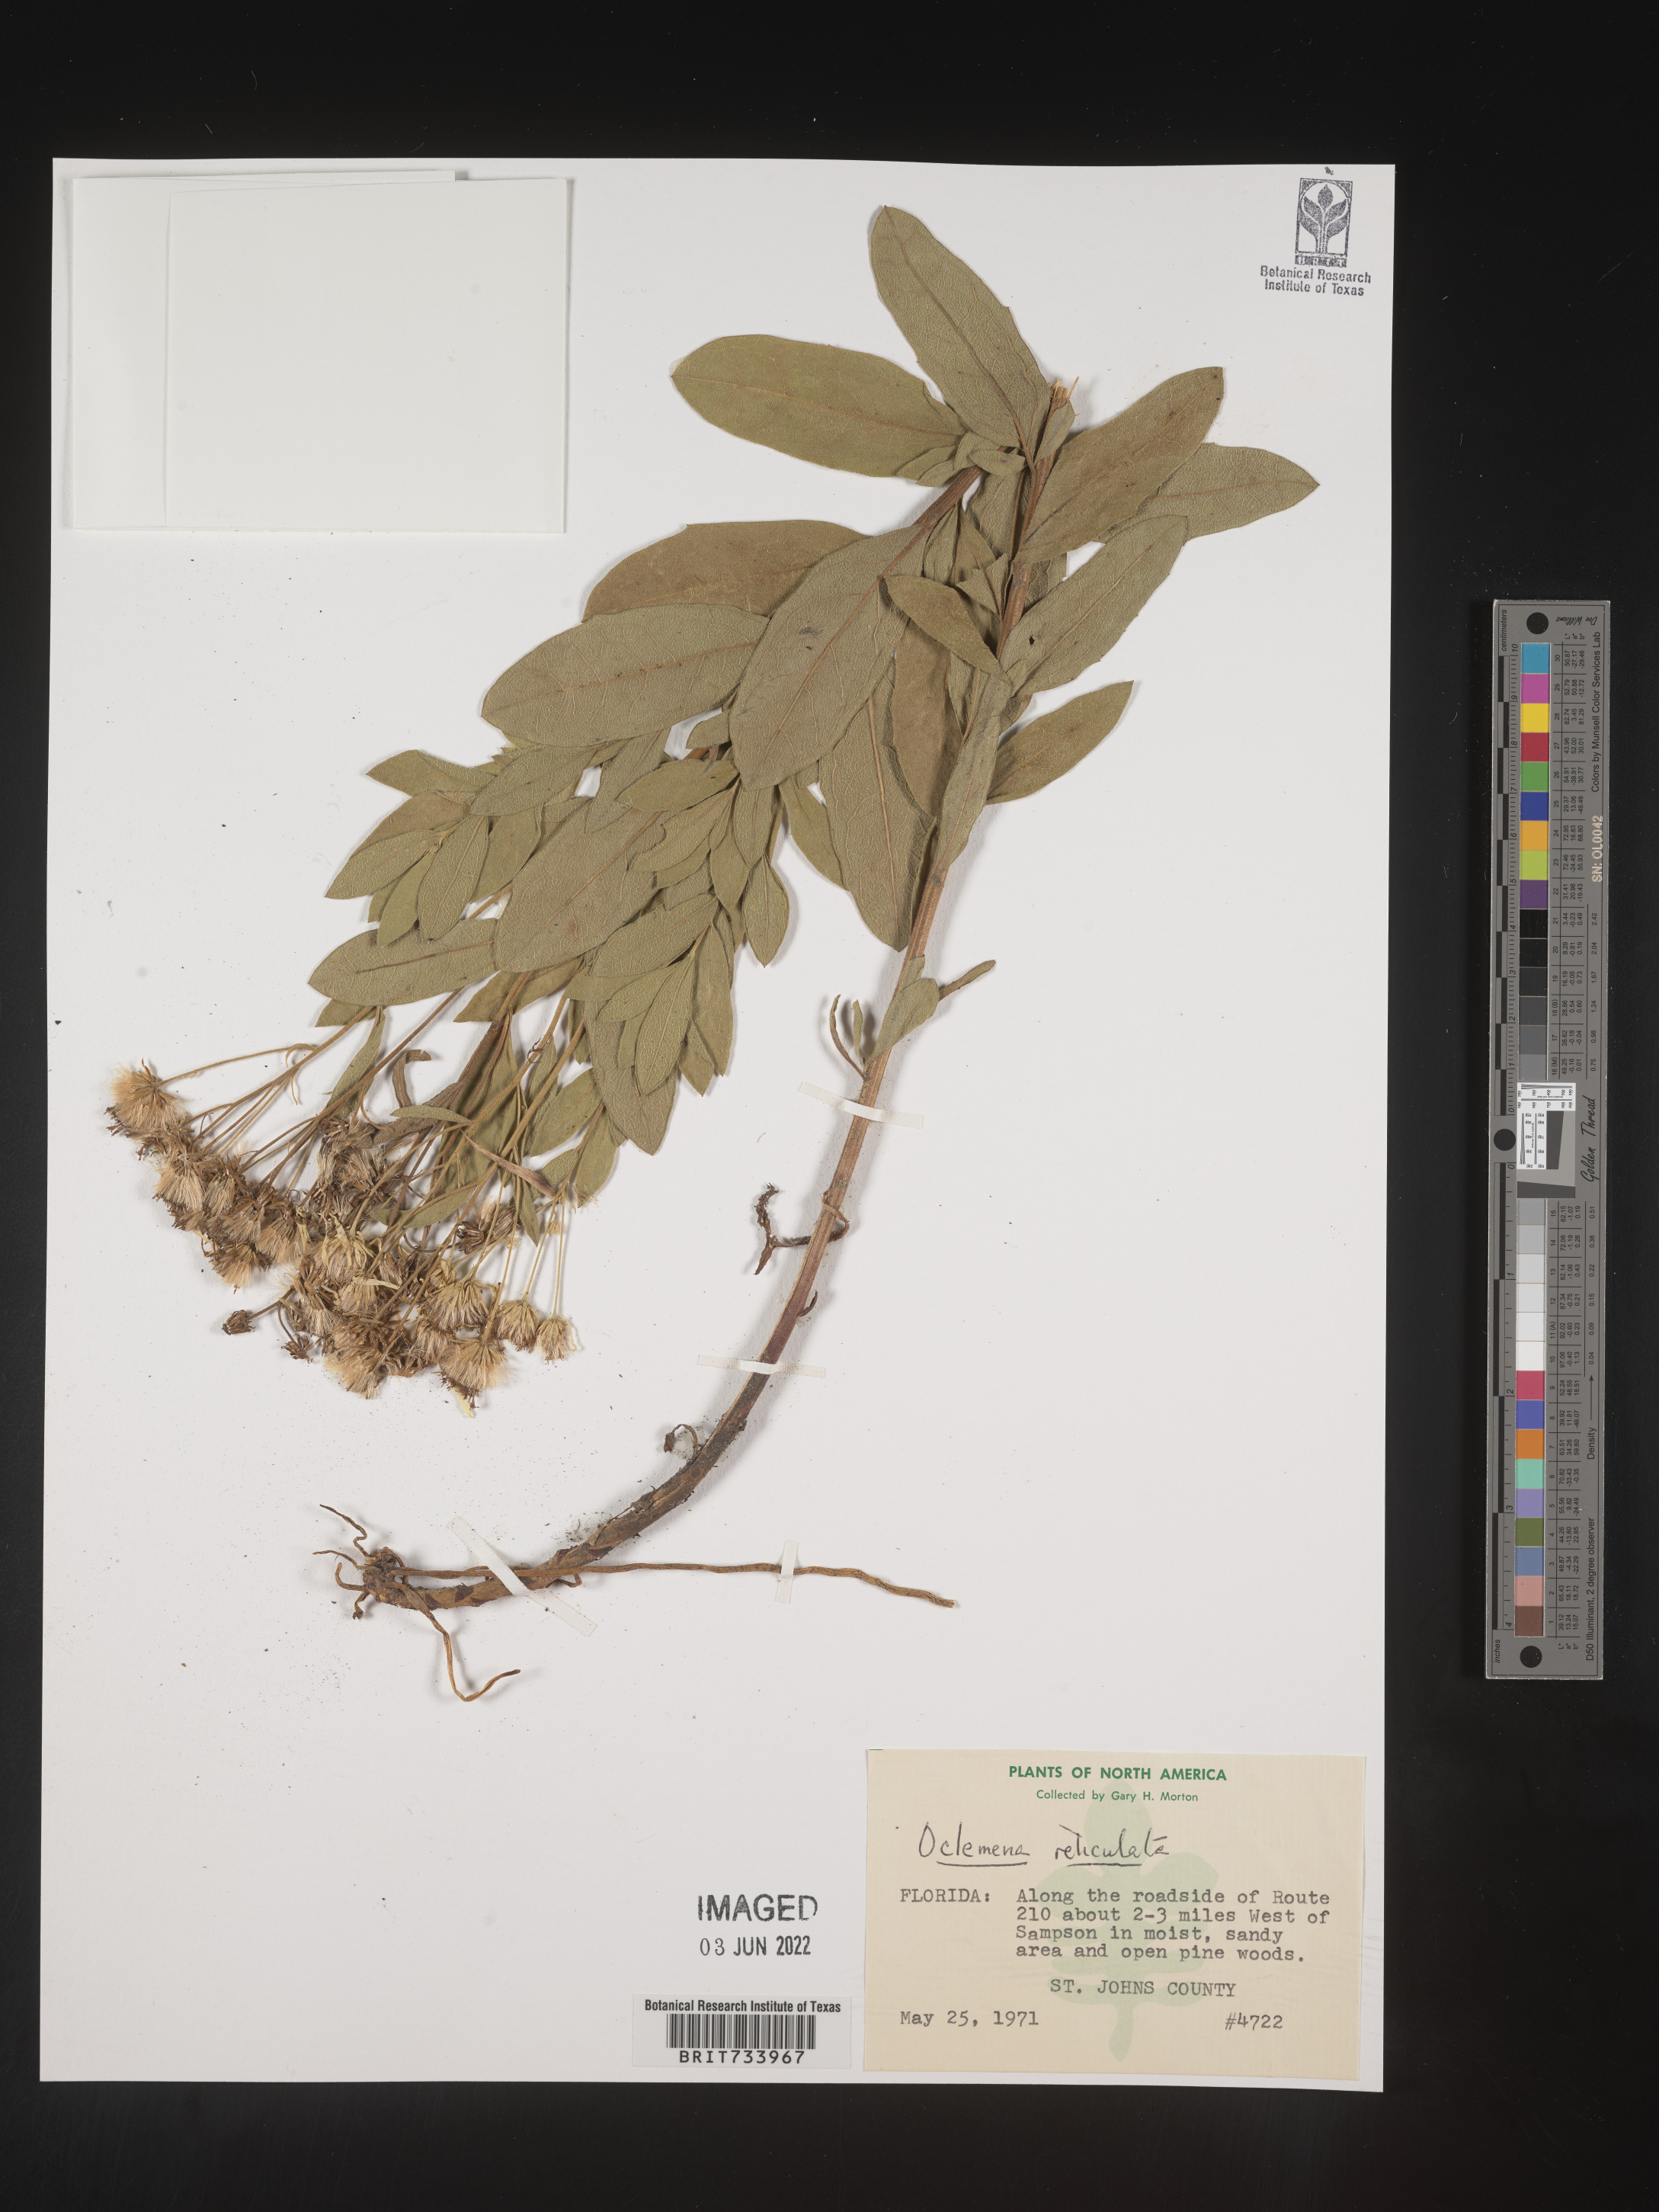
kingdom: Plantae
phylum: Tracheophyta
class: Magnoliopsida
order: Asterales
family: Asteraceae
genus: Oclemena
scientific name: Oclemena reticulata
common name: Pinebarren aster
